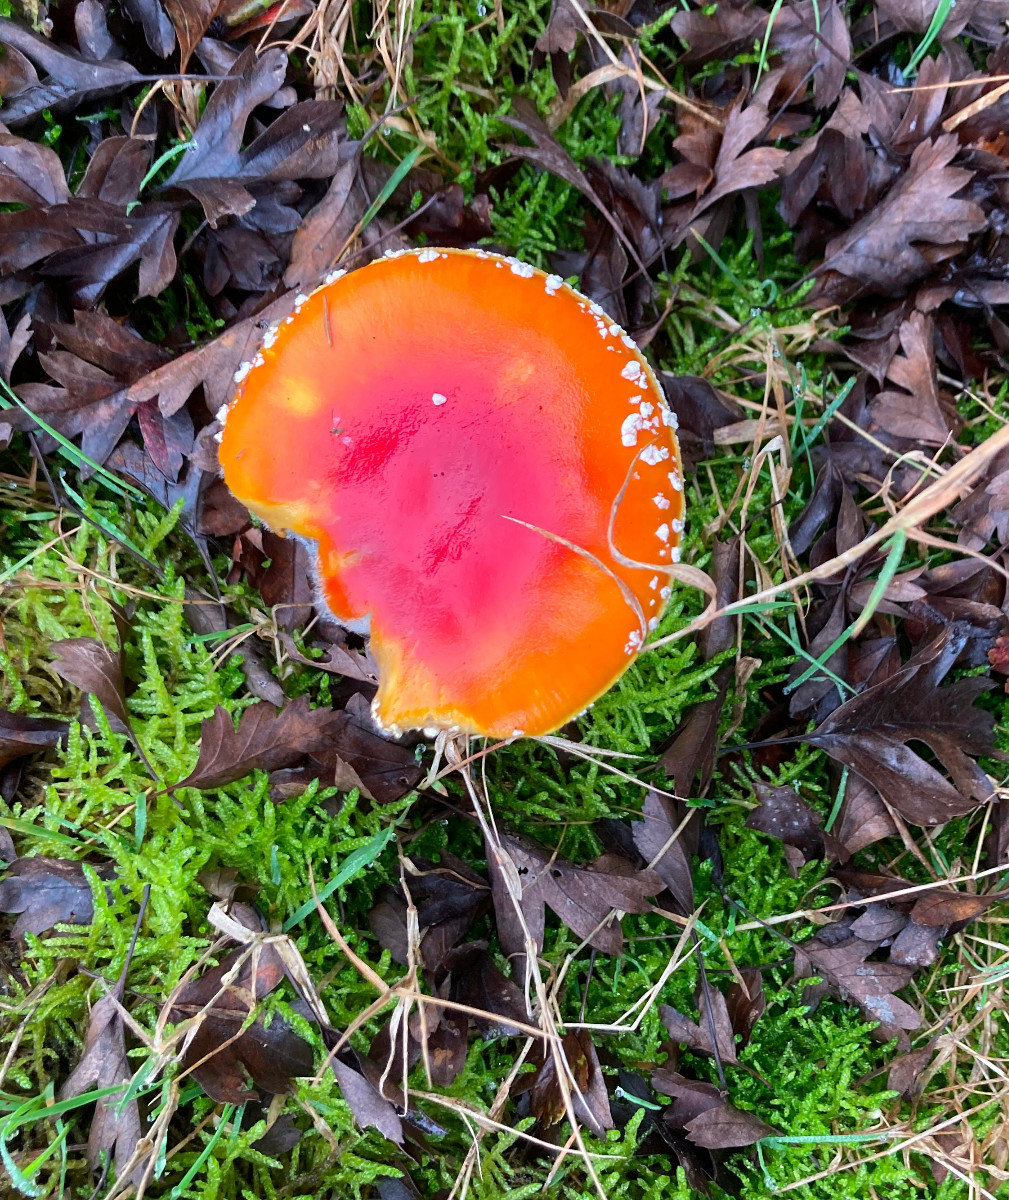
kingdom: Fungi
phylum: Basidiomycota
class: Agaricomycetes
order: Agaricales
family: Amanitaceae
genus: Amanita
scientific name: Amanita muscaria
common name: rød fluesvamp
